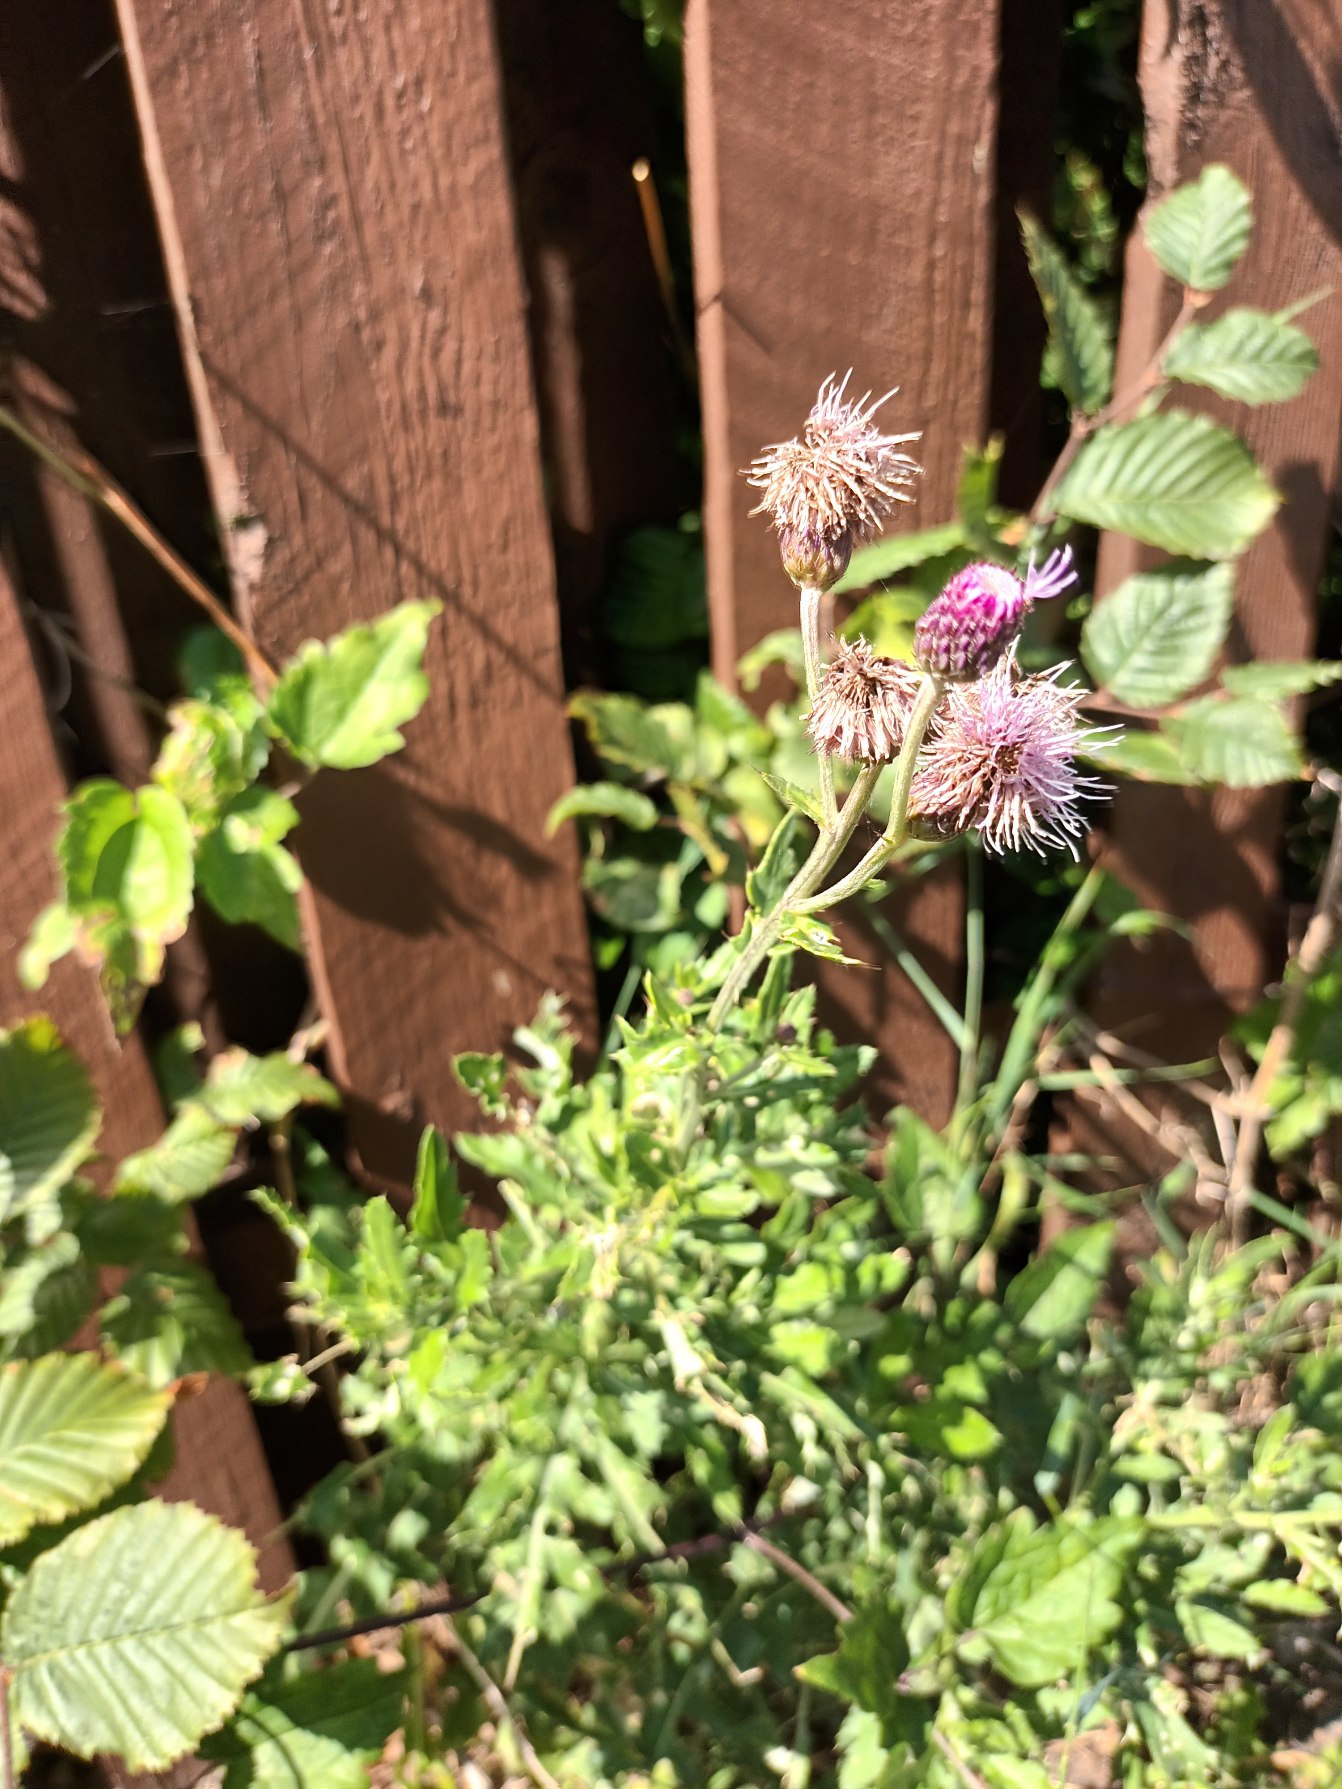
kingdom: Plantae
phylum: Tracheophyta
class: Magnoliopsida
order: Asterales
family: Asteraceae
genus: Cirsium
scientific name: Cirsium arvense
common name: Ager-tidsel
